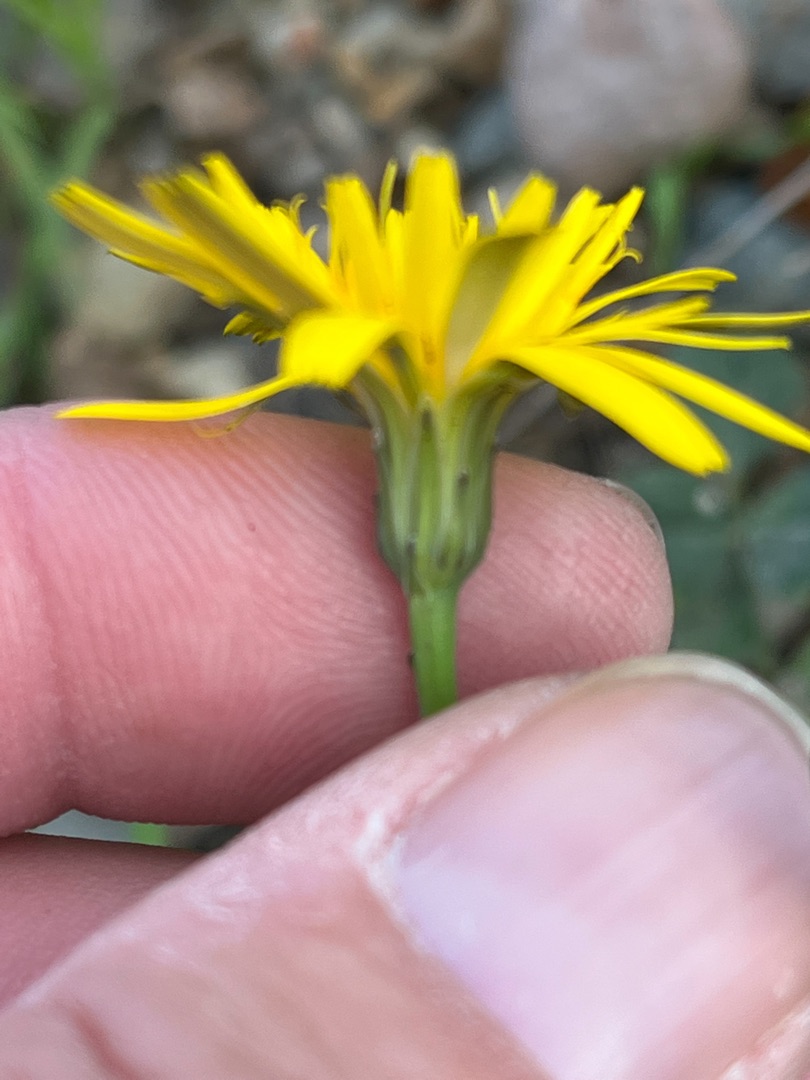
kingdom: Plantae
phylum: Tracheophyta
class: Magnoliopsida
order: Asterales
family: Asteraceae
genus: Hypochaeris
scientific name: Hypochaeris radicata
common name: Almindelig kongepen
